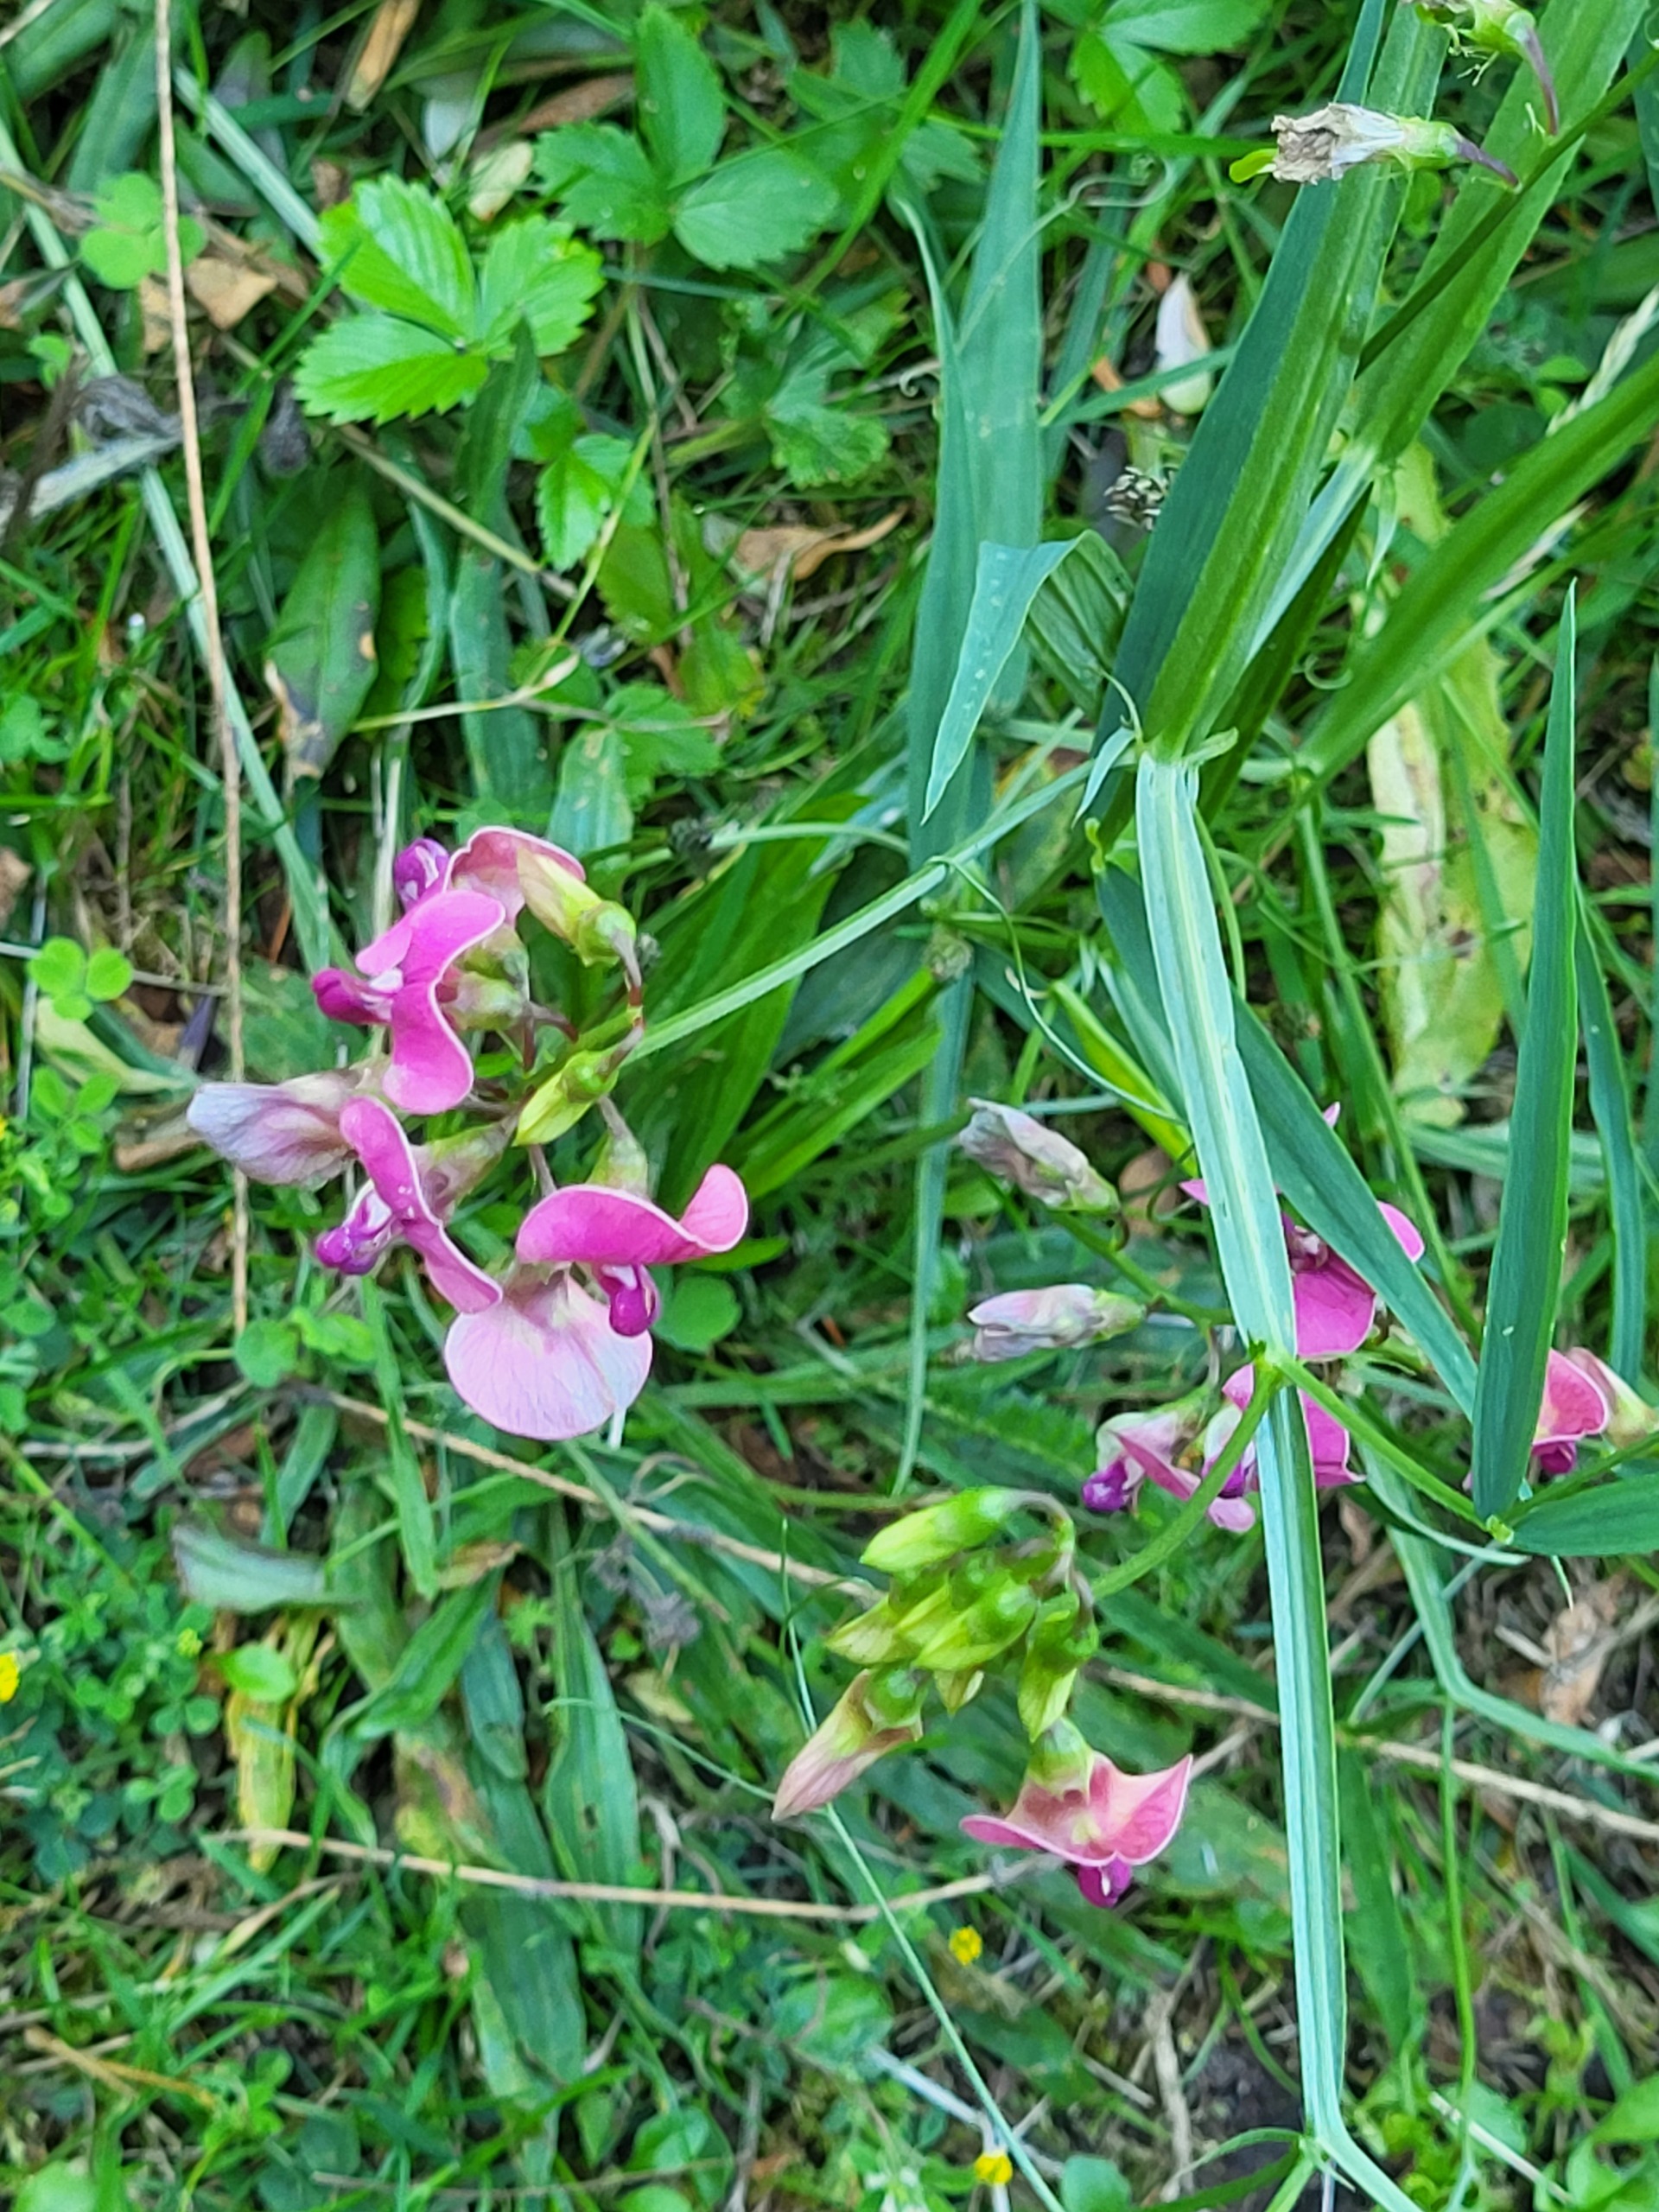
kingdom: Plantae
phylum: Tracheophyta
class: Magnoliopsida
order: Fabales
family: Fabaceae
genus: Lathyrus
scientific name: Lathyrus sylvestris
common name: Skov-fladbælg
